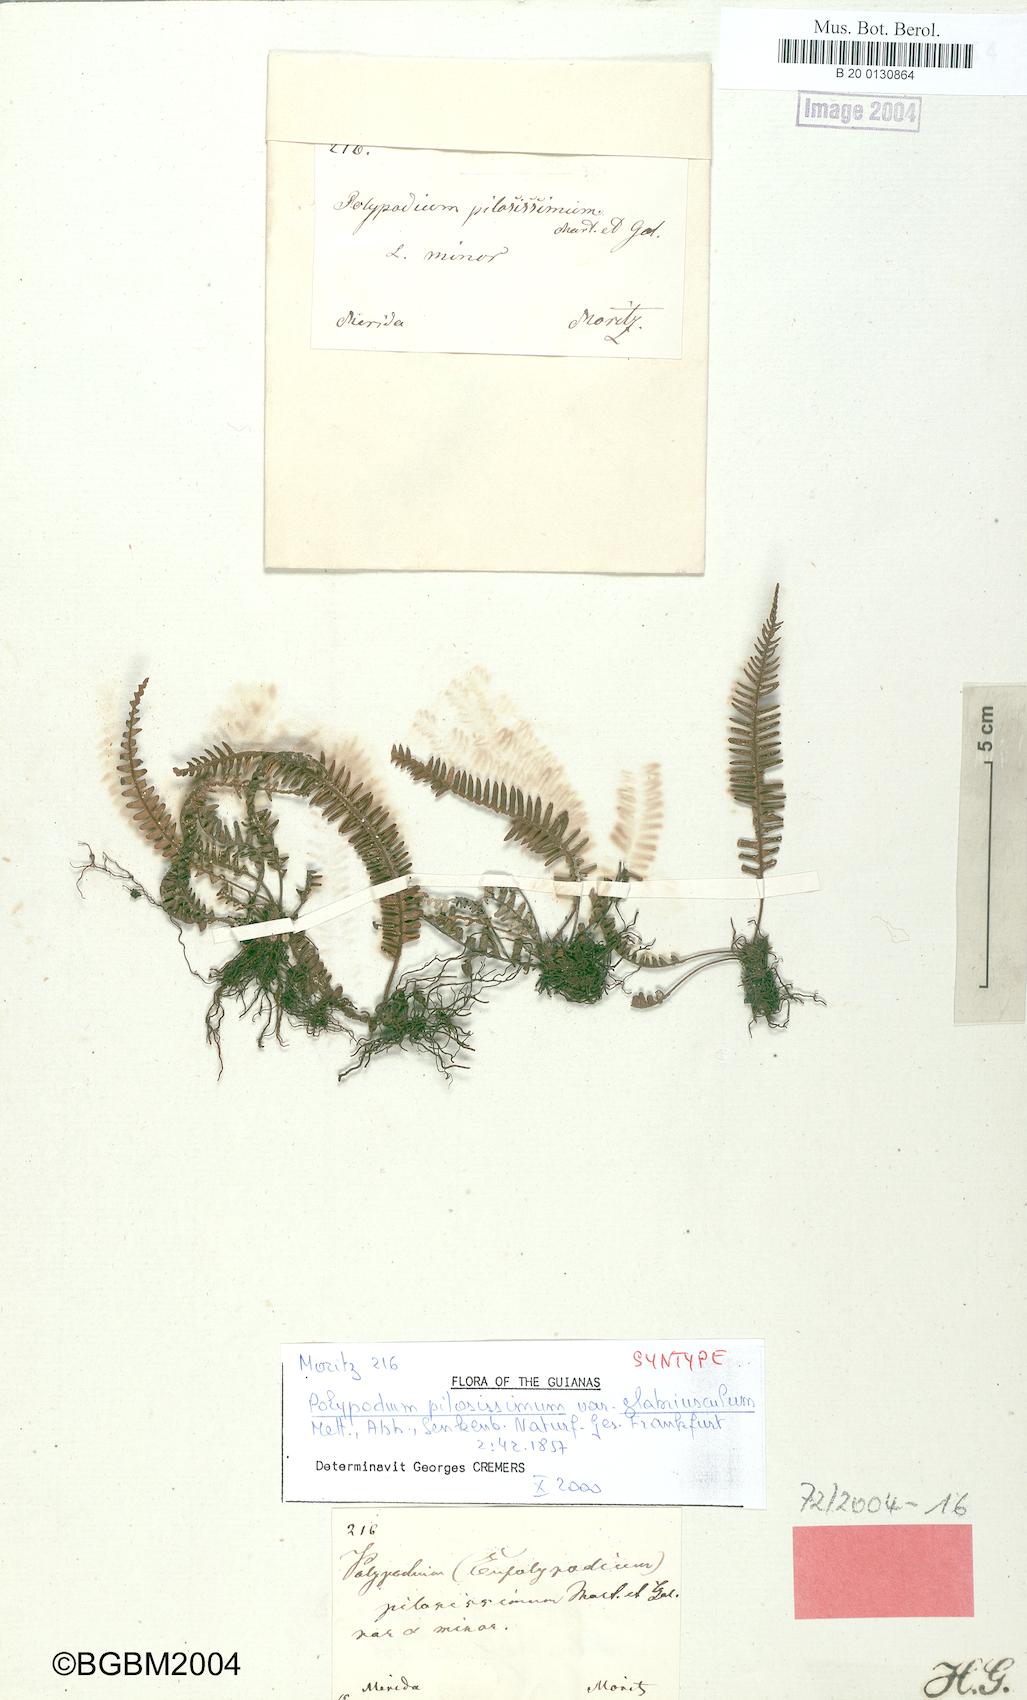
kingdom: Plantae
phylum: Tracheophyta
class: Polypodiopsida
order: Polypodiales
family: Polypodiaceae
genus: Melpomene
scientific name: Melpomene pilosissima
